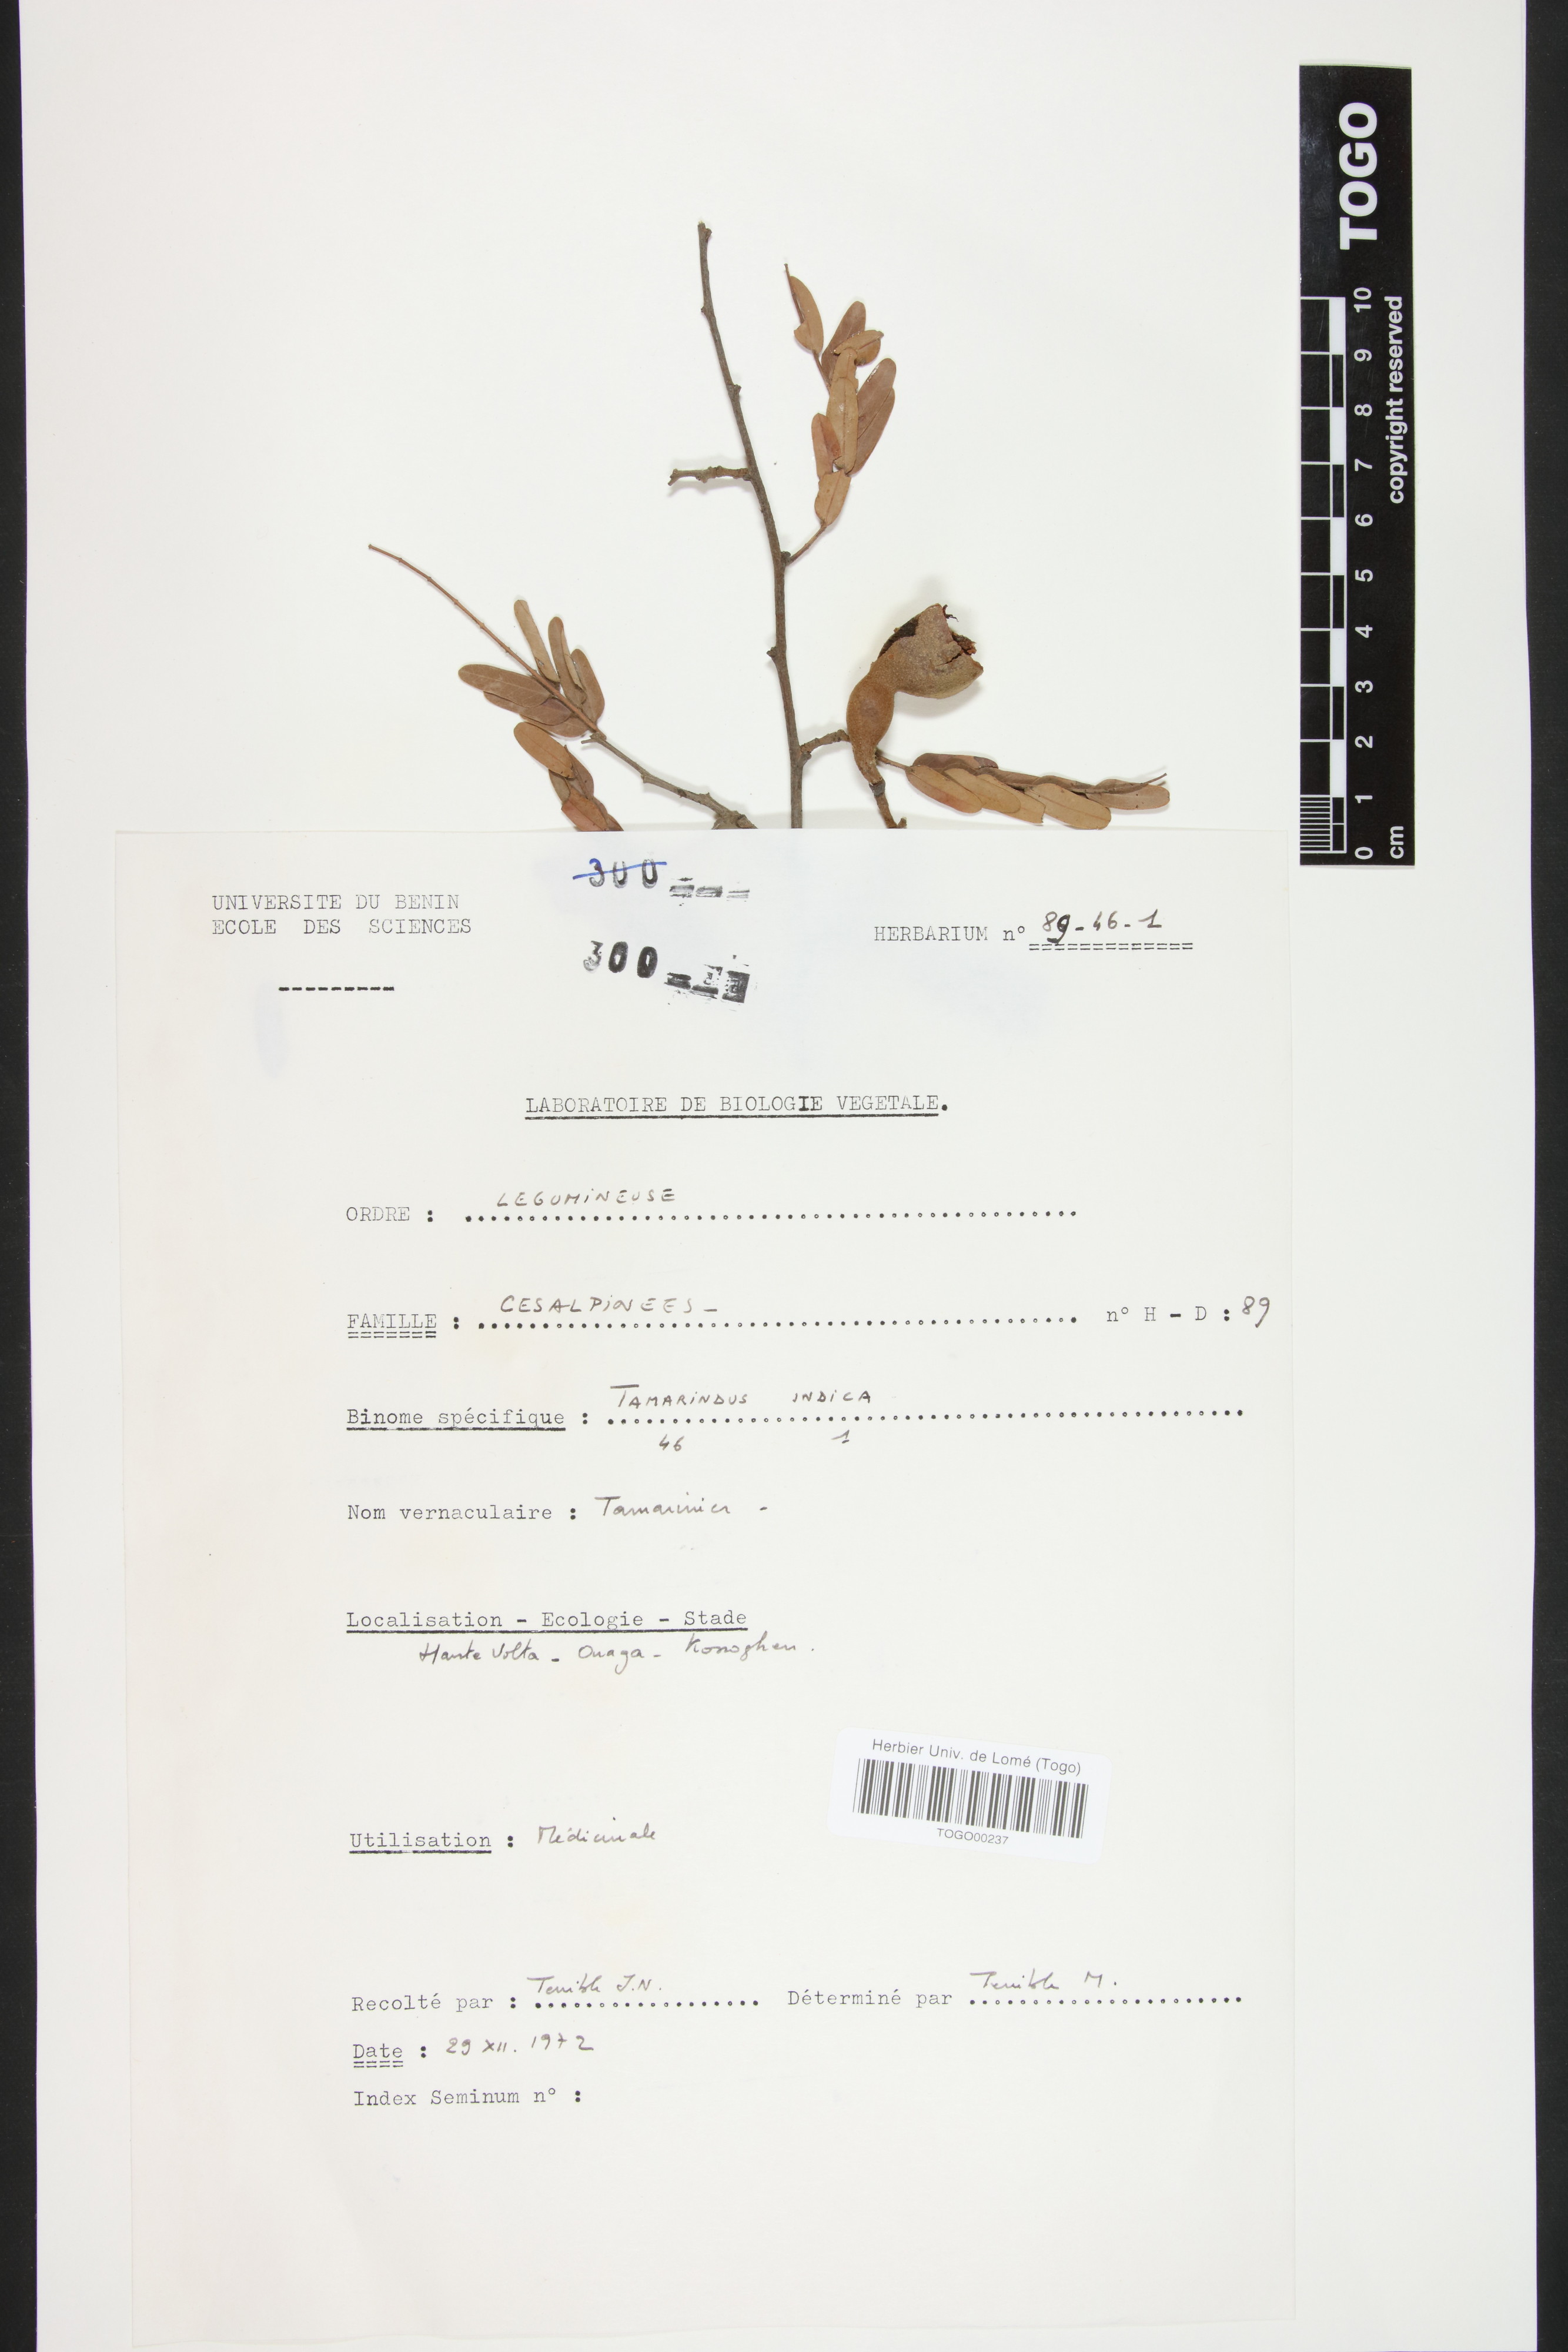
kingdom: Plantae
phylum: Tracheophyta
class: Magnoliopsida
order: Fabales
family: Fabaceae
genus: Tamarindus
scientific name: Tamarindus indica
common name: Tamarind
